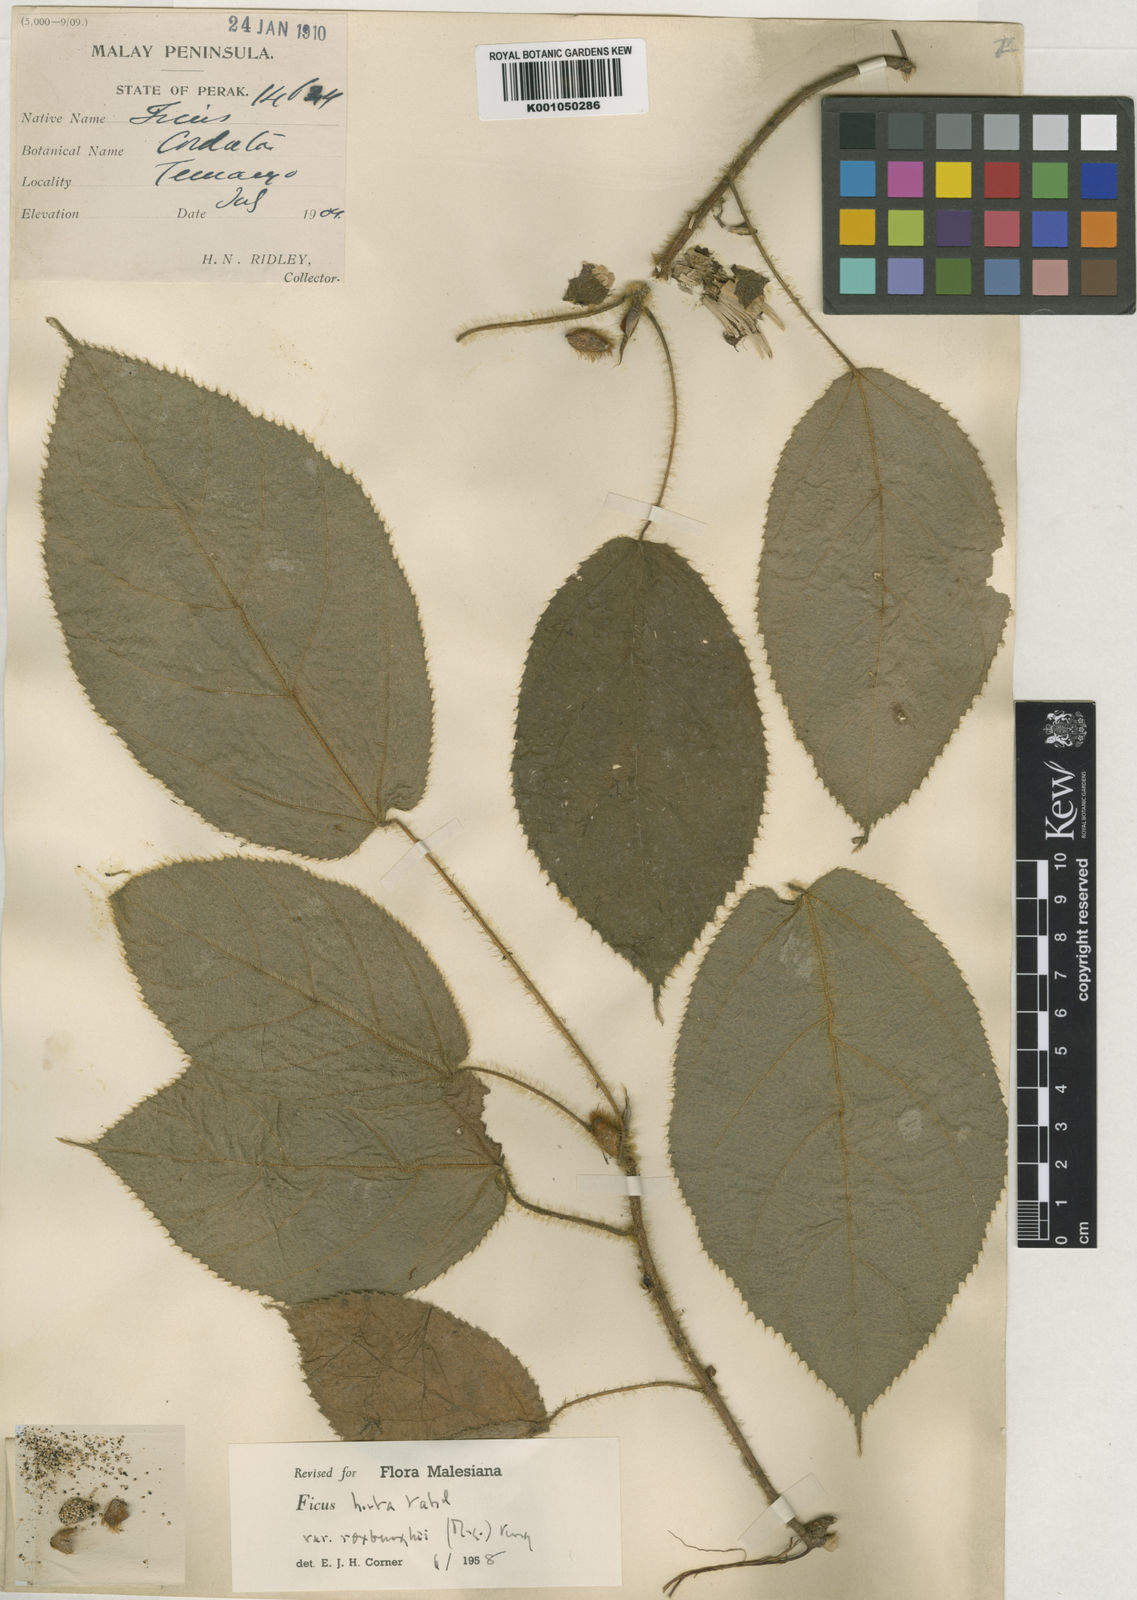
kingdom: Plantae
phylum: Tracheophyta
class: Magnoliopsida
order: Rosales
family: Moraceae
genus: Ficus
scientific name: Ficus simplicissima
